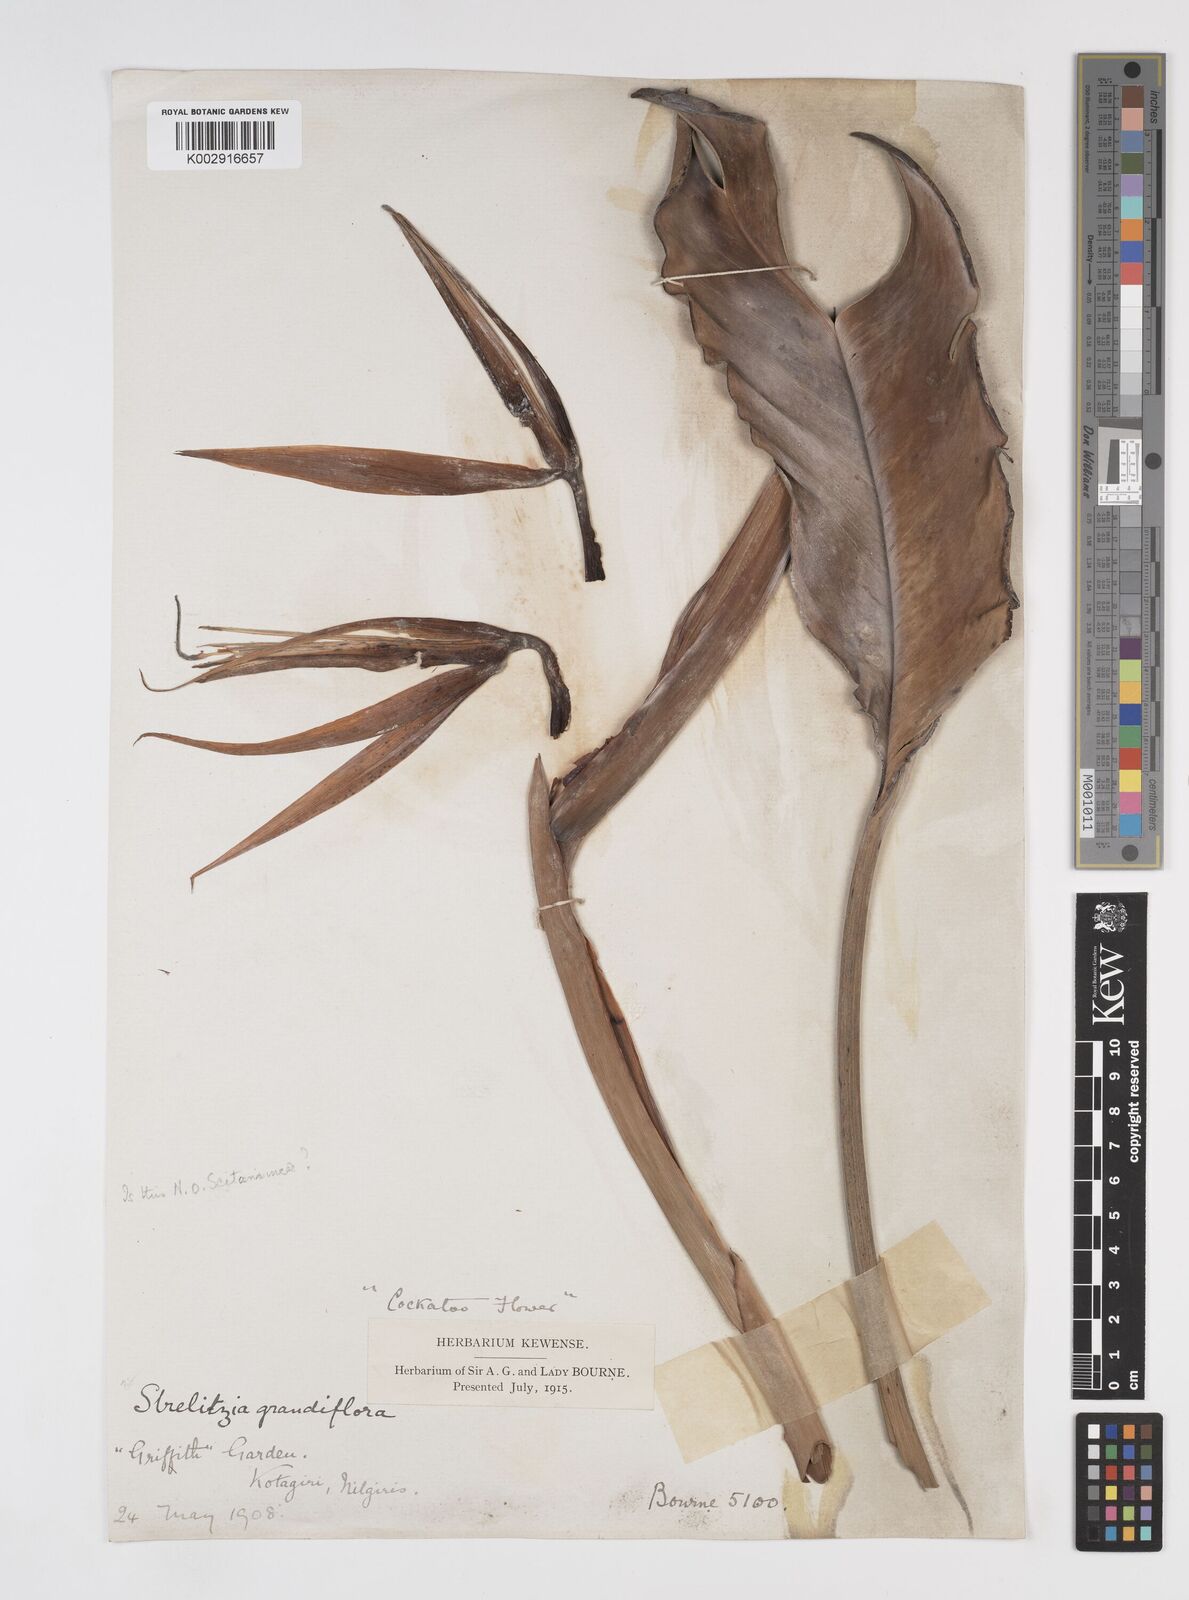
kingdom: Plantae
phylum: Tracheophyta
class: Liliopsida
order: Zingiberales
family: Strelitziaceae
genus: Strelitzia
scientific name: Strelitzia reginae
